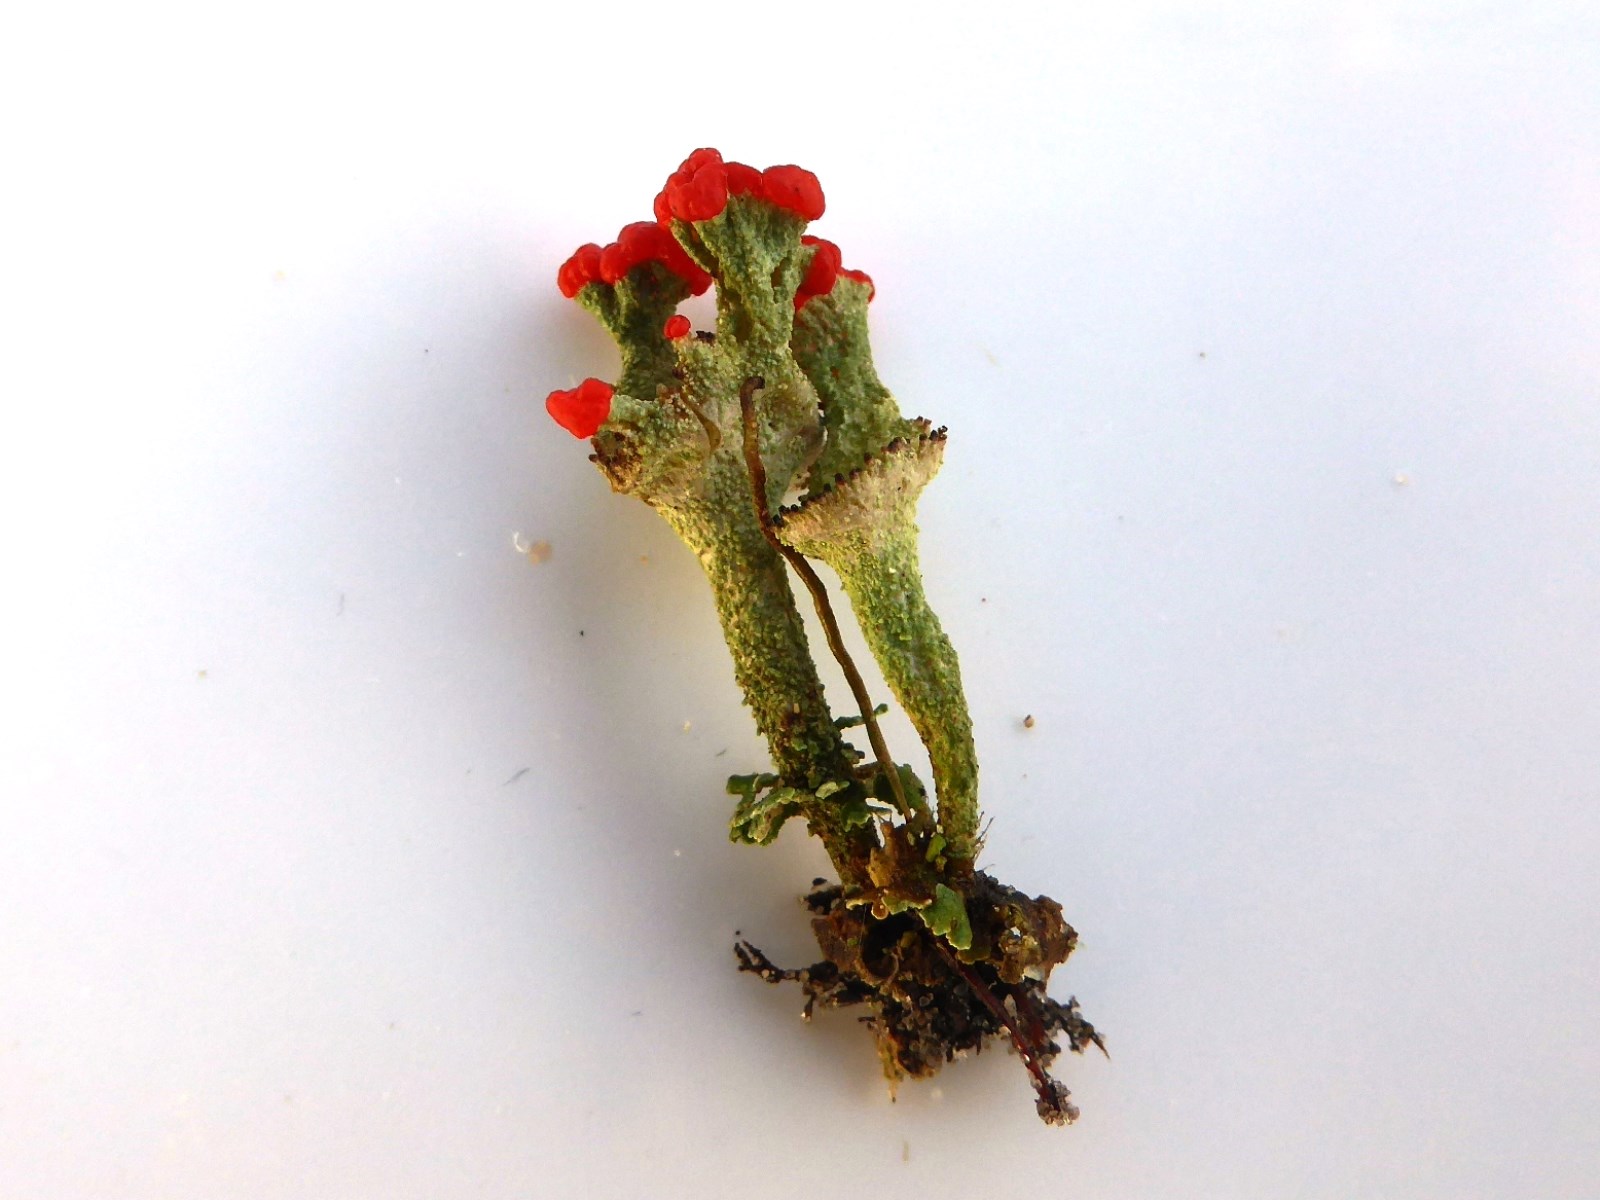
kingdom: Fungi
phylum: Ascomycota
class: Lecanoromycetes
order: Lecanorales
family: Cladoniaceae
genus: Cladonia
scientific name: Cladonia diversa
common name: rød bægerlav
